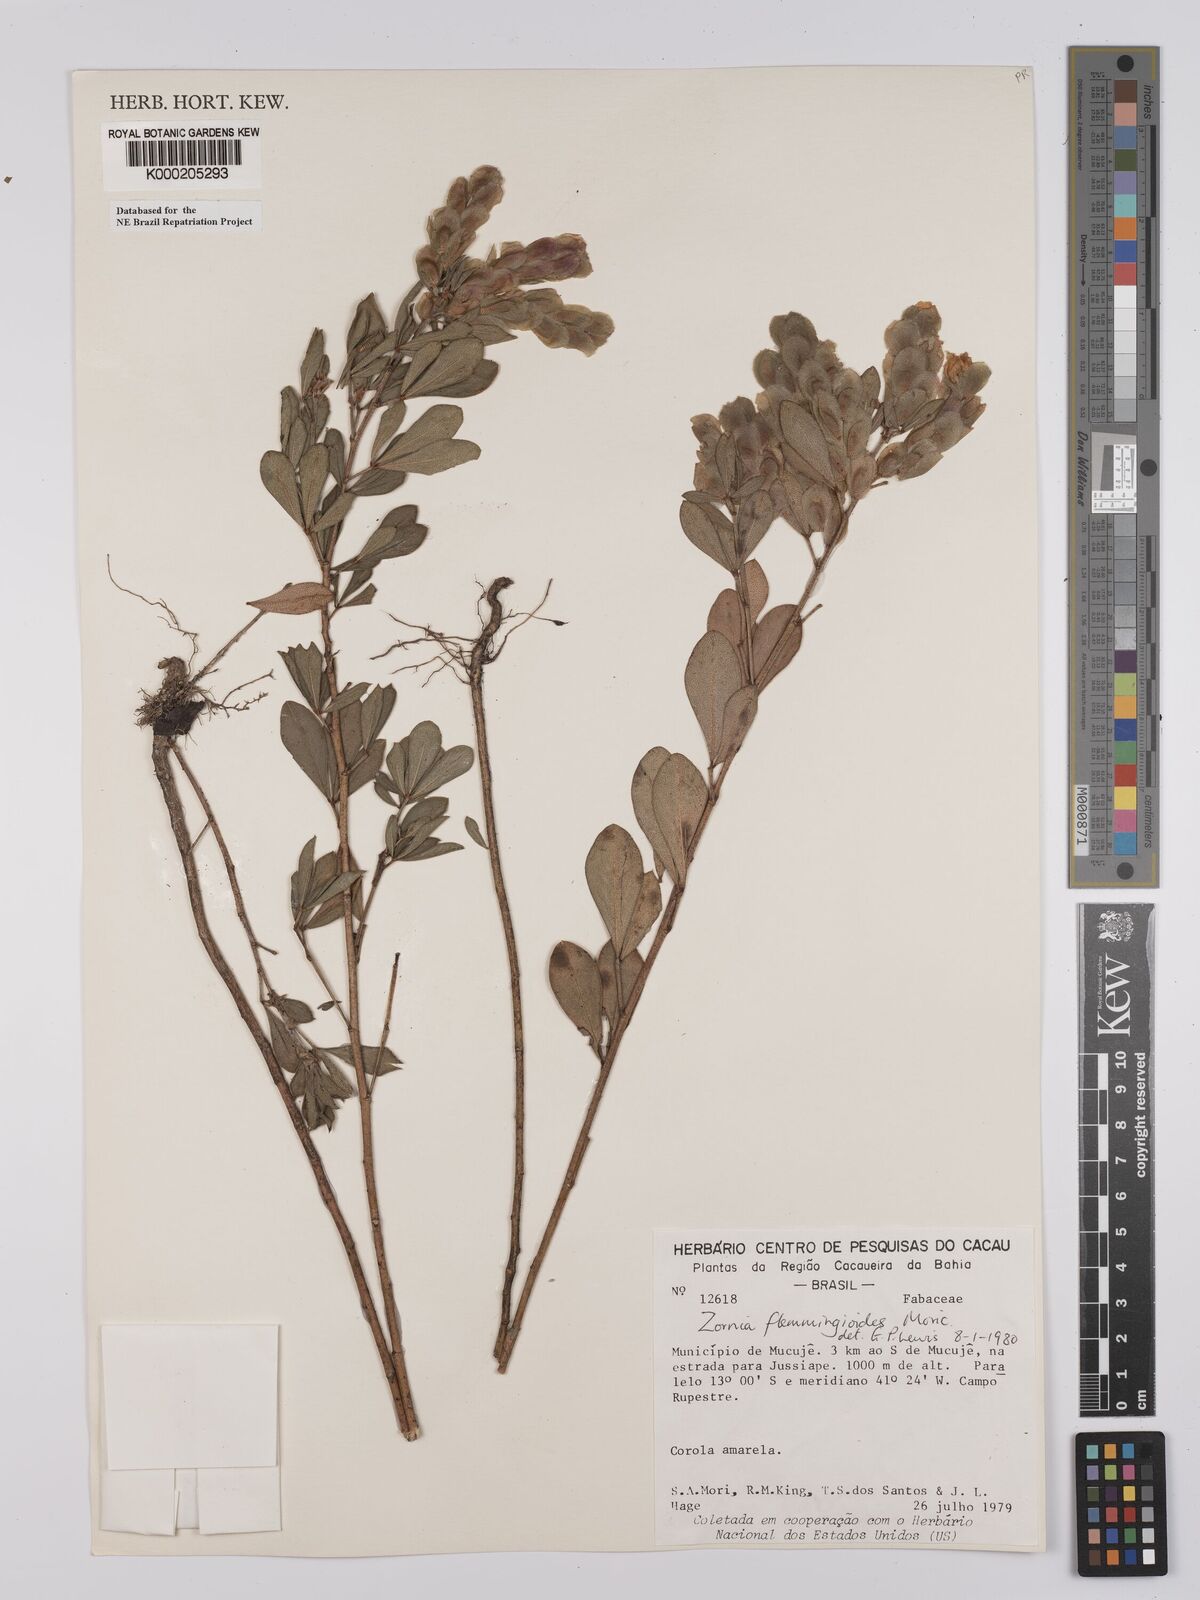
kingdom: Plantae
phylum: Tracheophyta
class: Magnoliopsida
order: Fabales
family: Fabaceae
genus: Zornia
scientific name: Zornia flemmingioides
